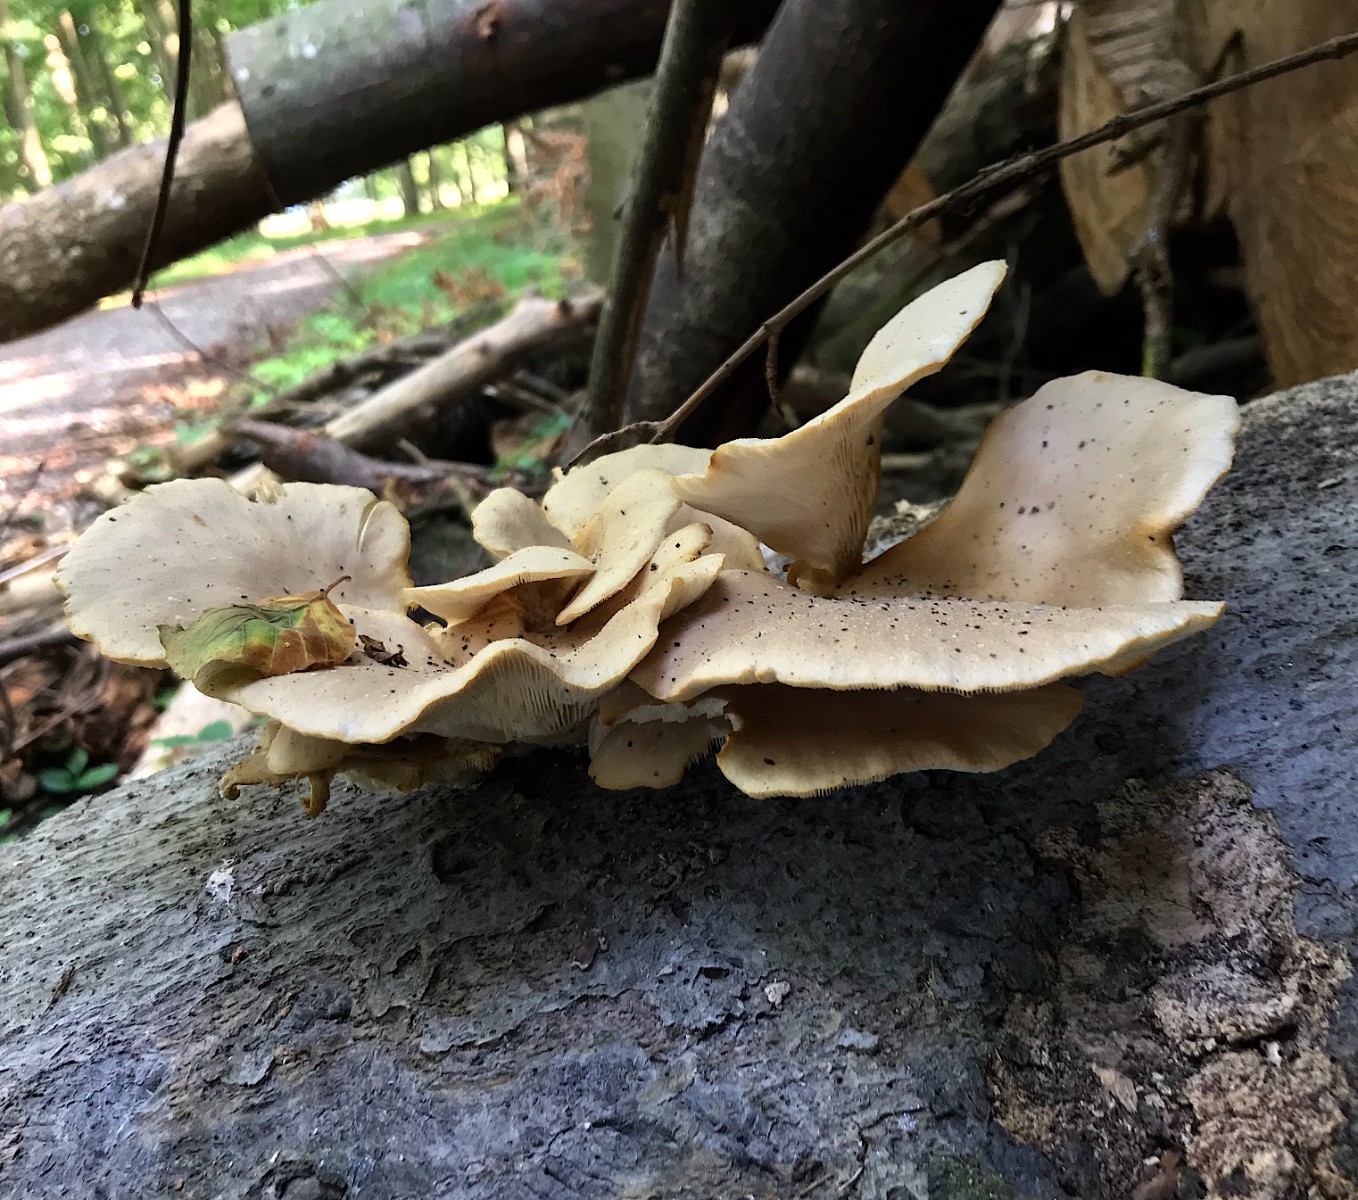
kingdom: Fungi
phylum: Basidiomycota
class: Agaricomycetes
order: Agaricales
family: Pleurotaceae
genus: Pleurotus
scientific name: Pleurotus pulmonarius
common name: sommer-østershat
